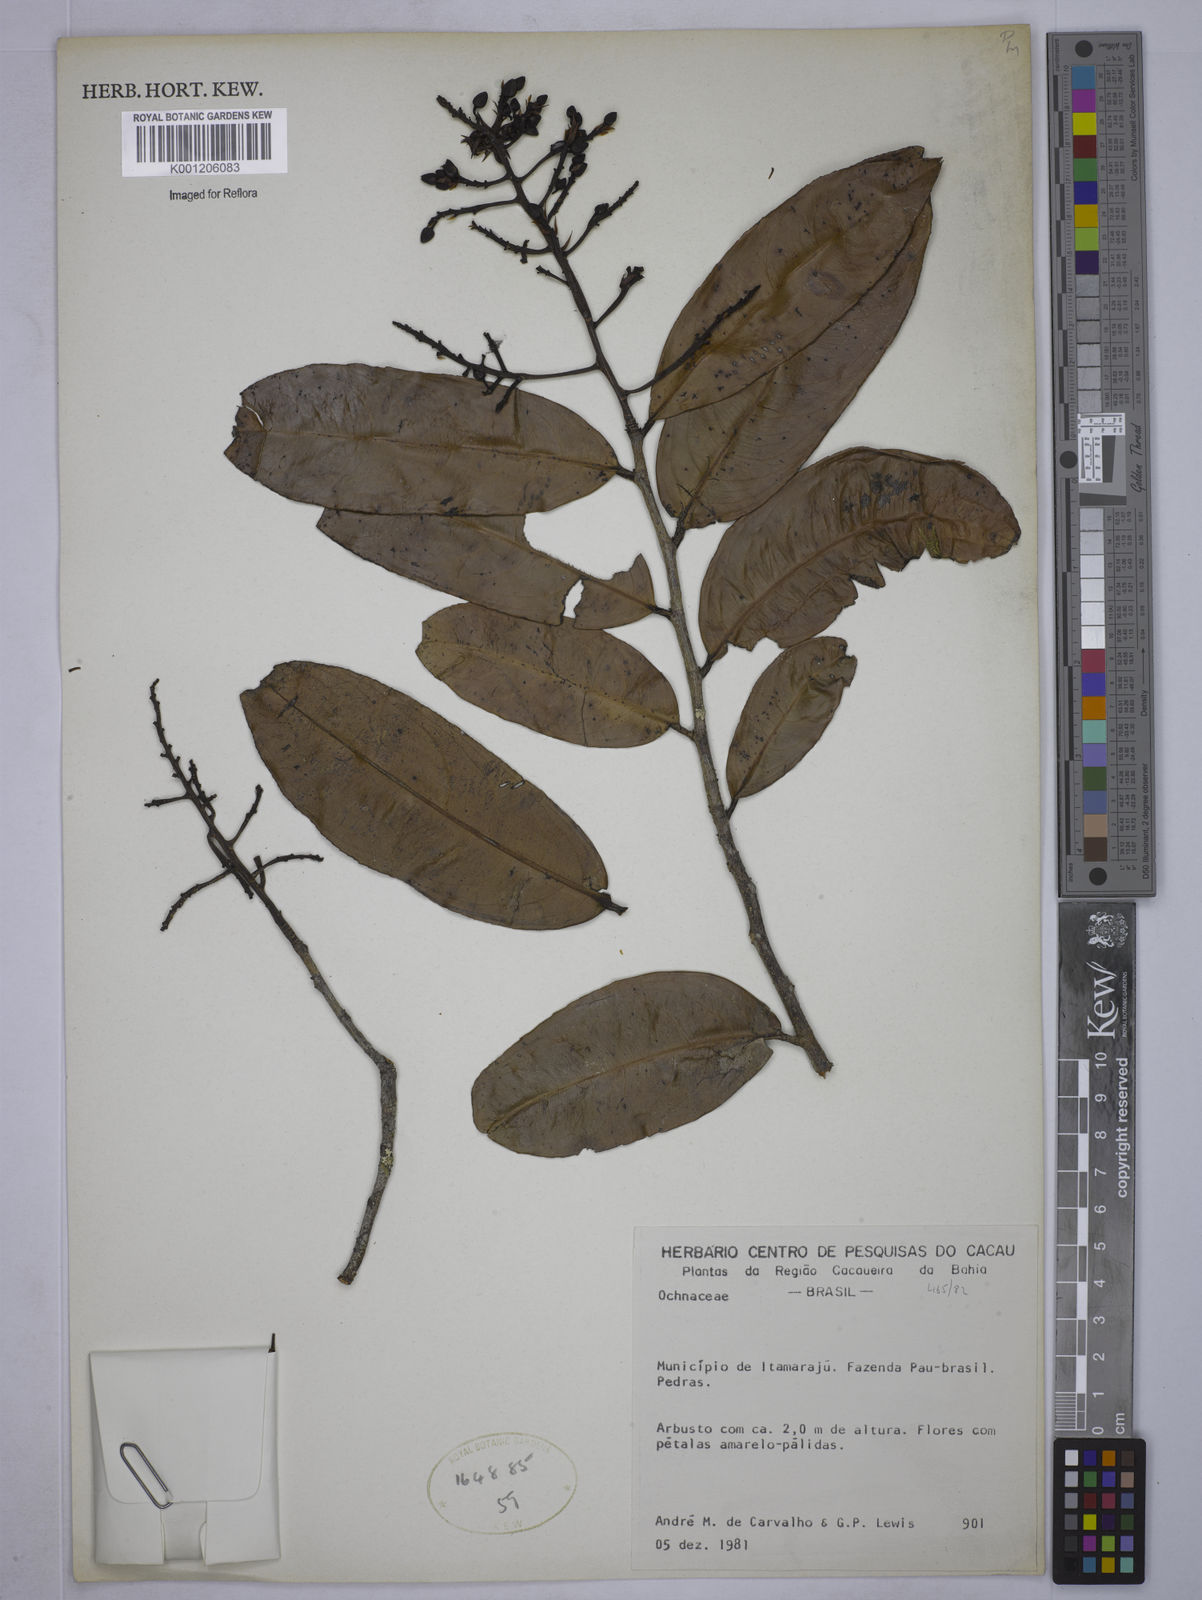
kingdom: Plantae
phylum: Tracheophyta
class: Magnoliopsida
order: Malpighiales
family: Ochnaceae
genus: Ouratea
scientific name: Ouratea
